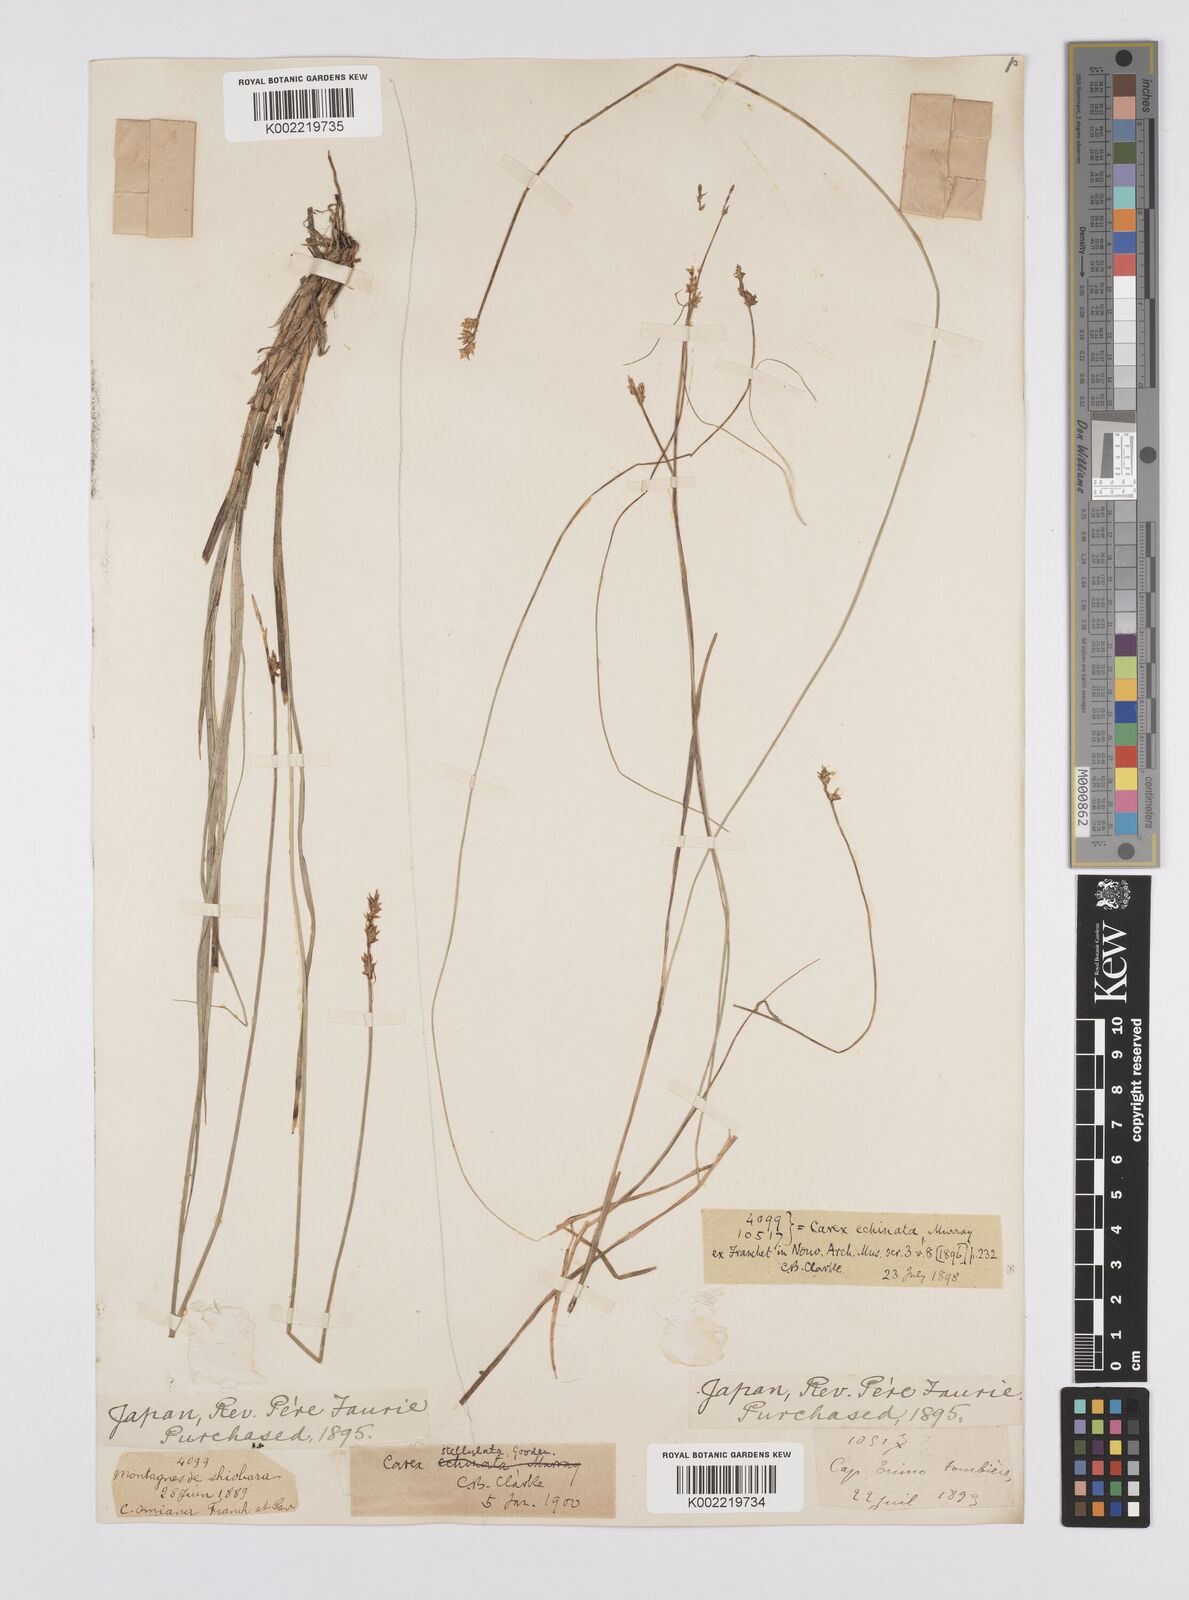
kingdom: Plantae
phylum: Tracheophyta
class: Liliopsida
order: Poales
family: Cyperaceae
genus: Carex
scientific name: Carex echinata
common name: Star sedge
